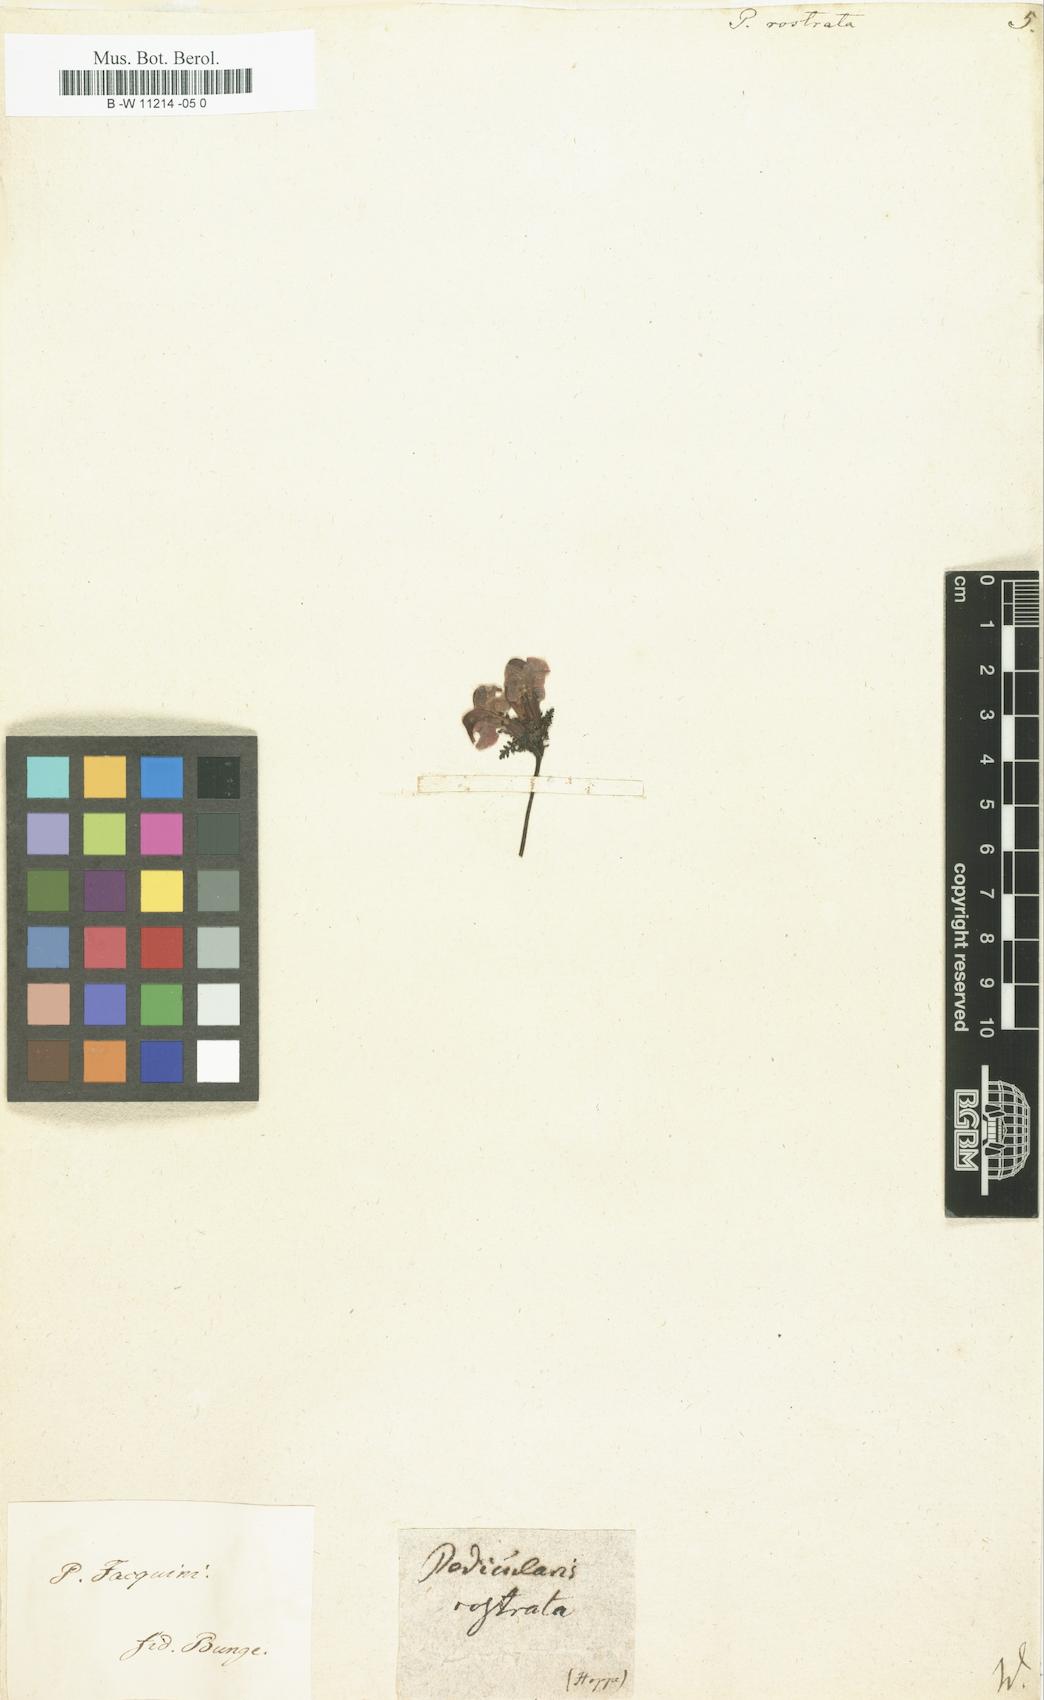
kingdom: Plantae
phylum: Tracheophyta
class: Magnoliopsida
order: Lamiales
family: Orobanchaceae
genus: Pedicularis
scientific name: Pedicularis
